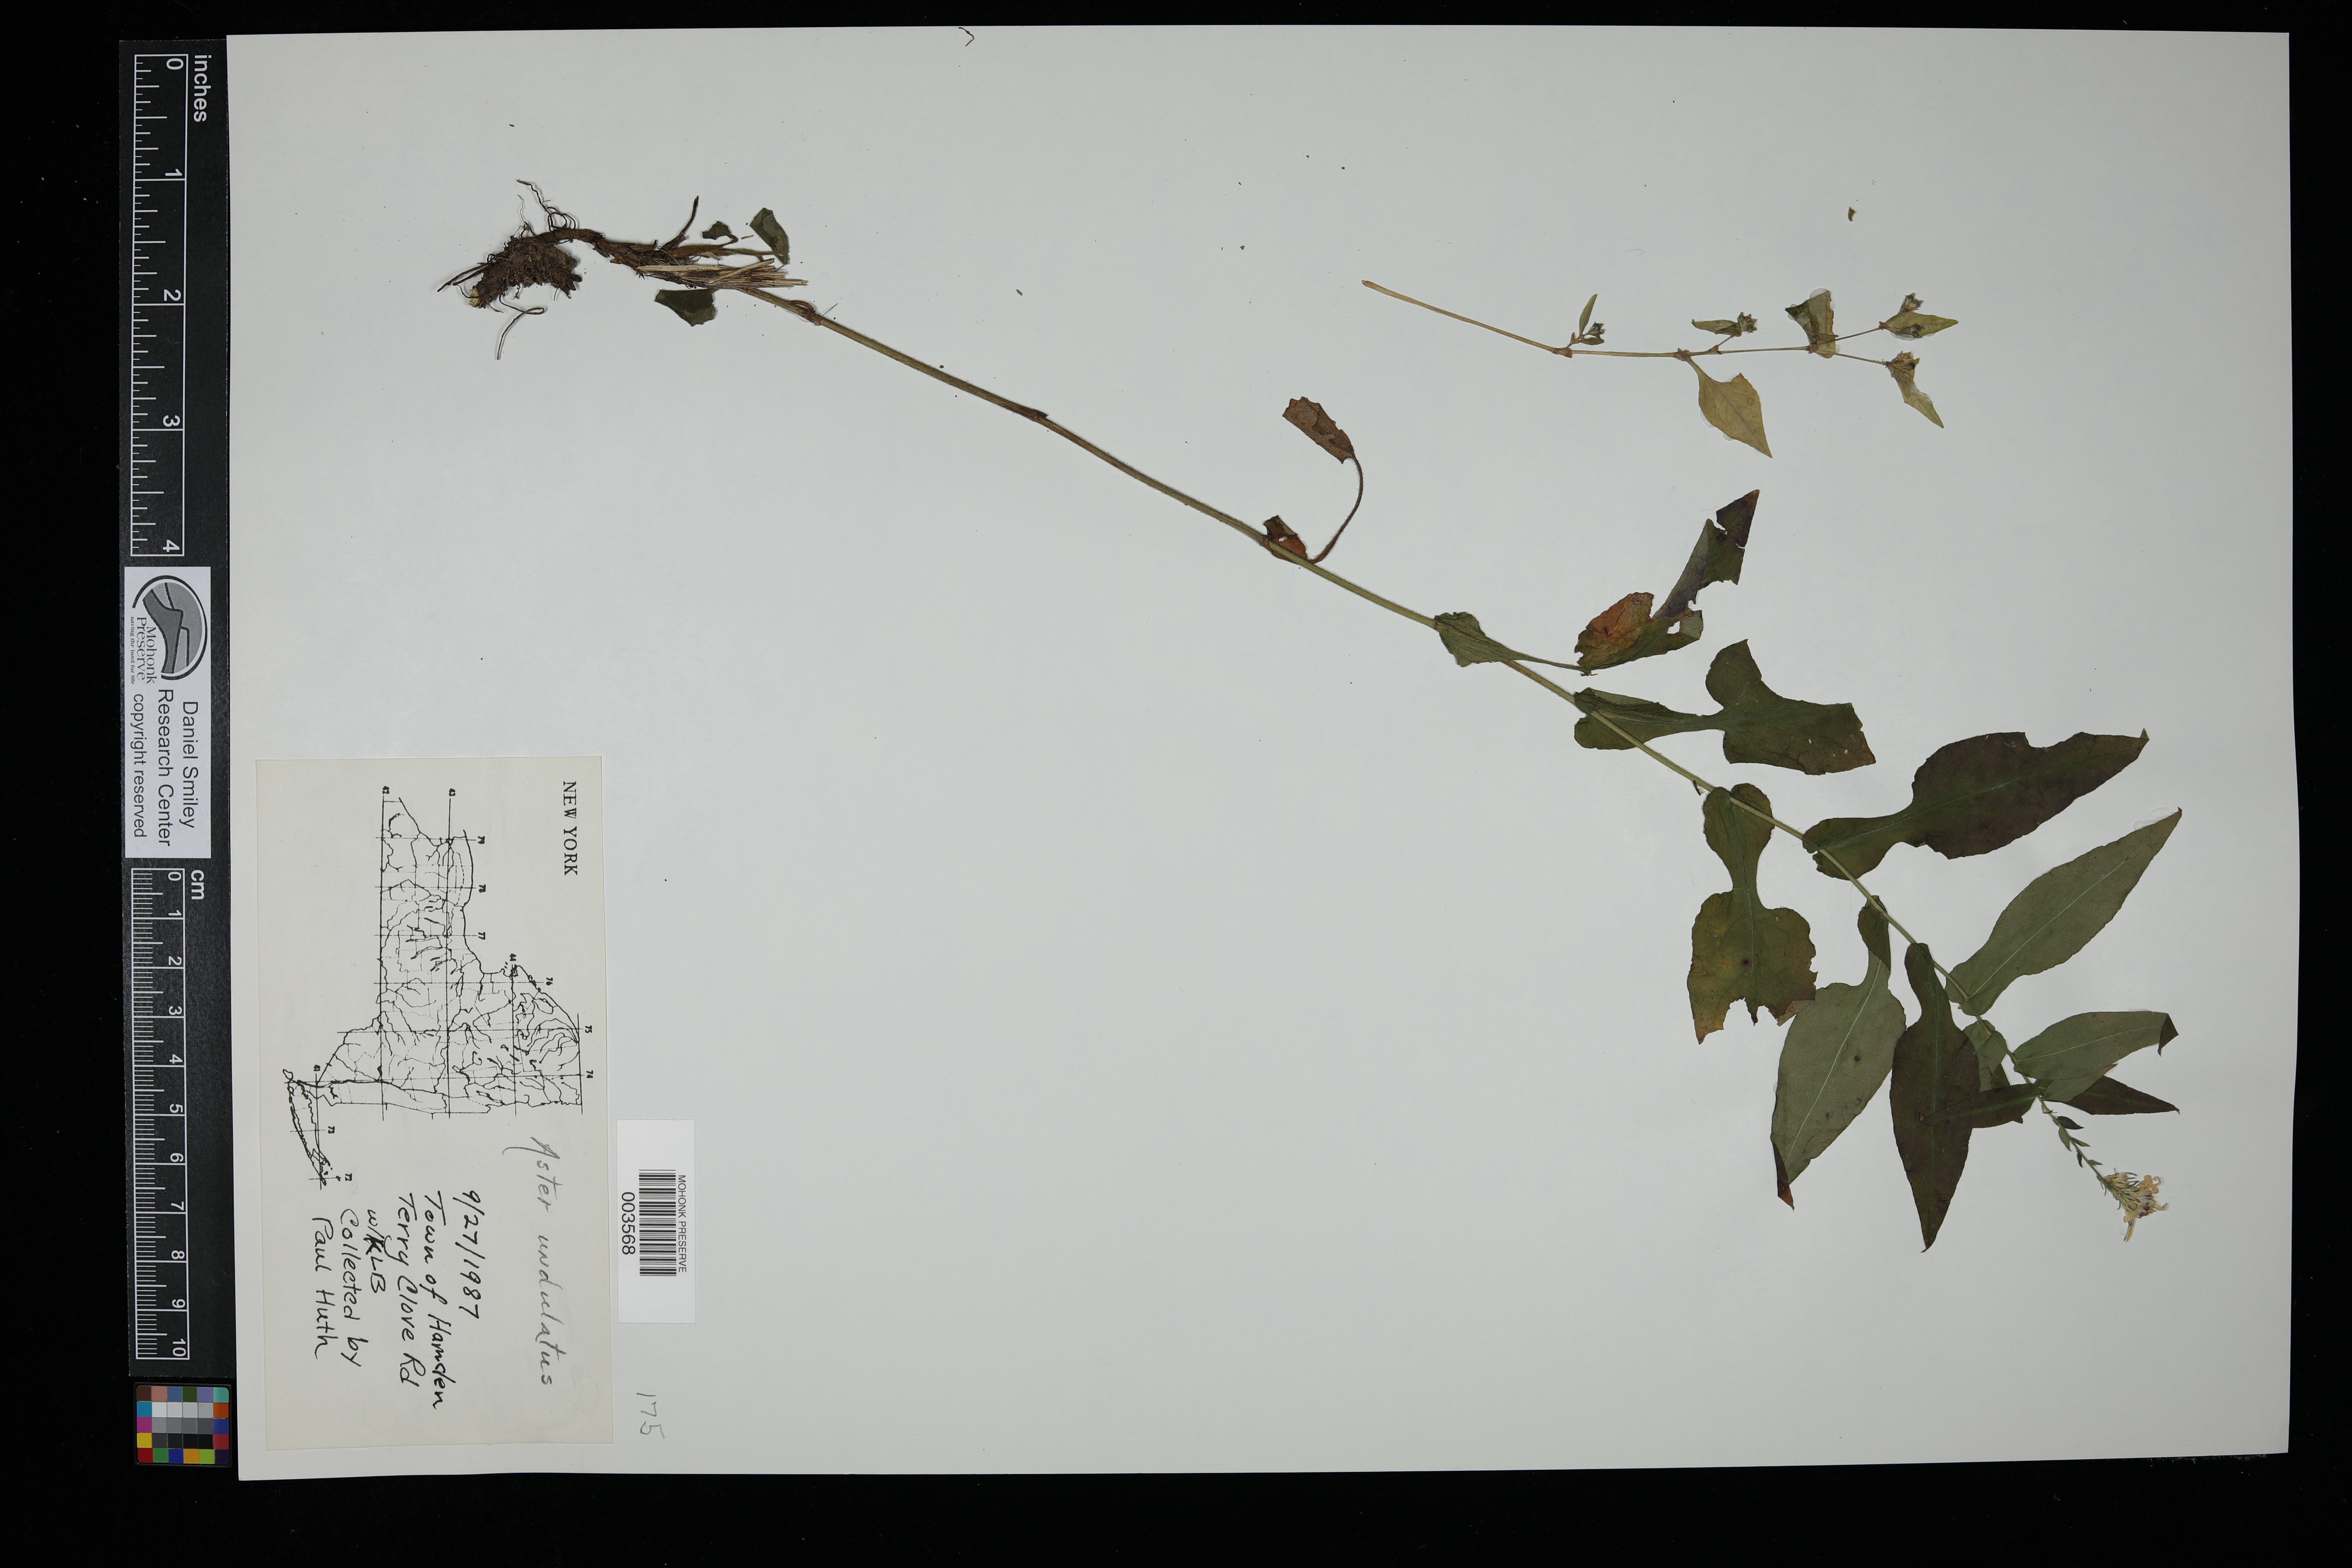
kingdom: Plantae
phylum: Tracheophyta
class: Magnoliopsida
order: Asterales
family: Asteraceae
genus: Symphyotrichum
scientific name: Symphyotrichum undulatum
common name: Clasping heart-leaf aster
